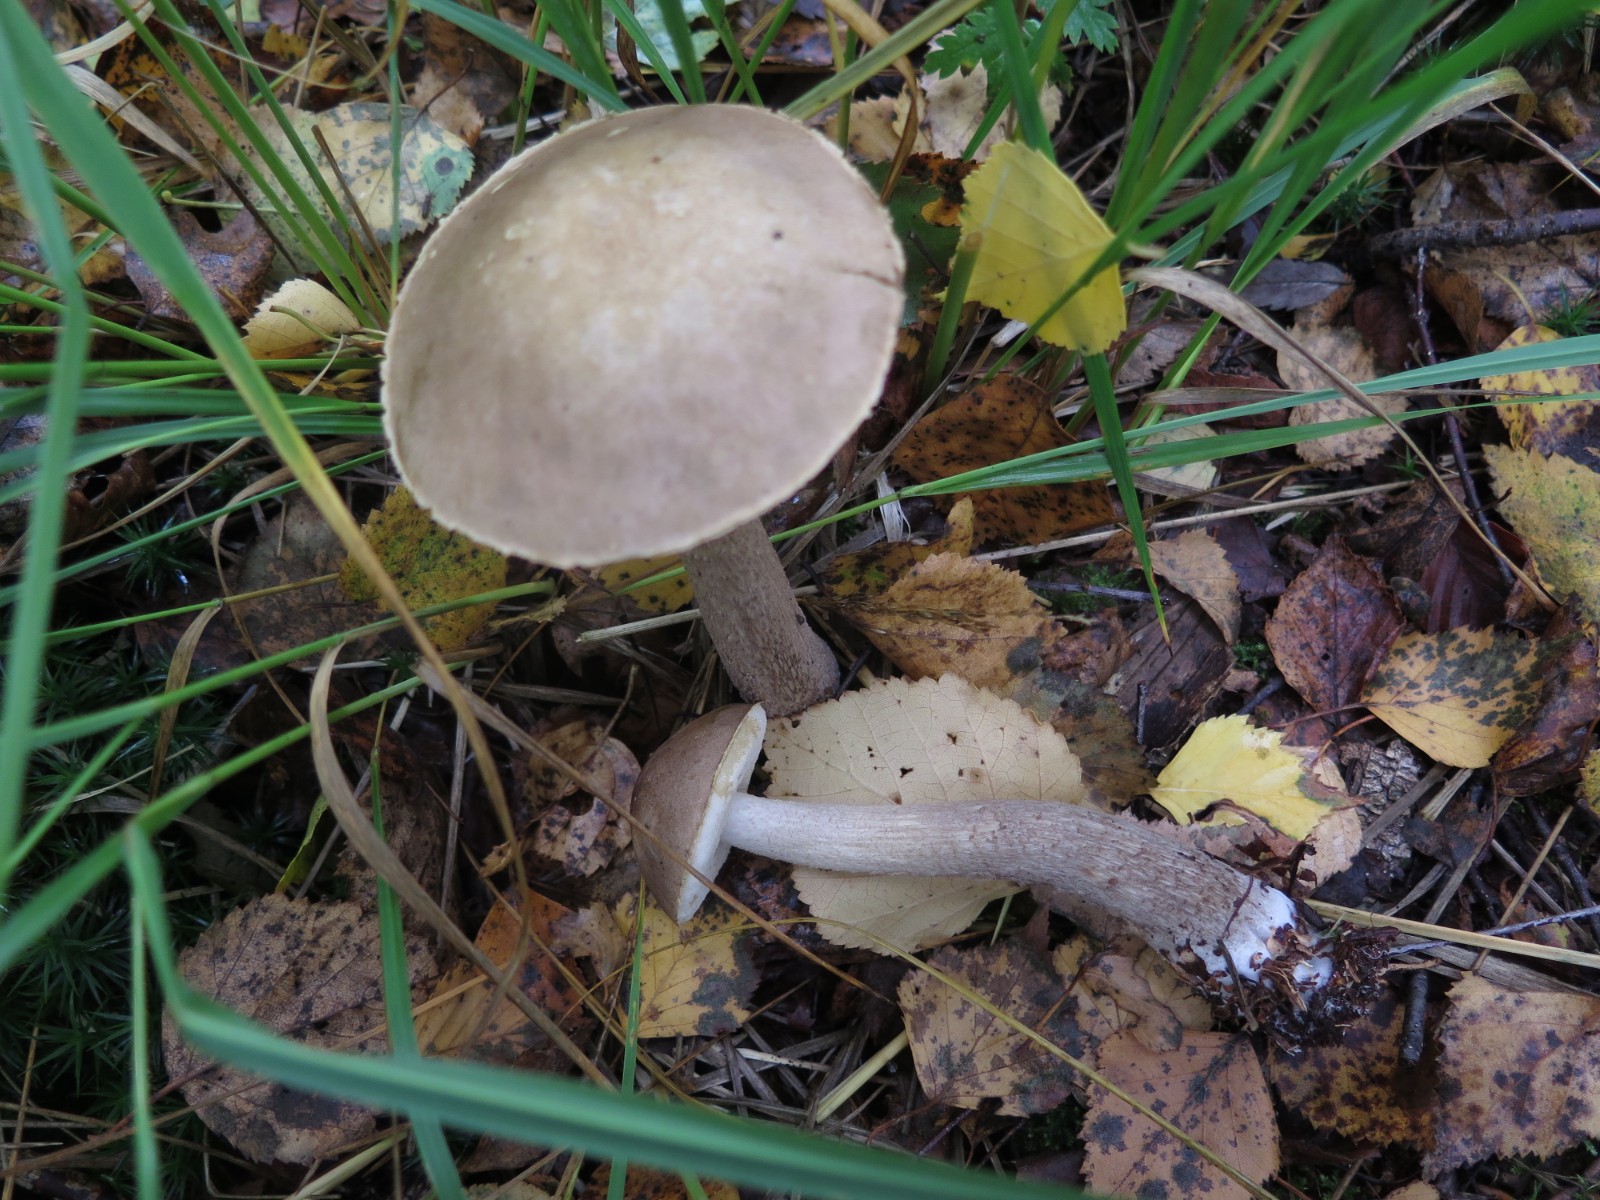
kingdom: Fungi
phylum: Basidiomycota
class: Agaricomycetes
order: Boletales
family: Boletaceae
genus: Leccinum
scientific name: Leccinum
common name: skælrørhat
